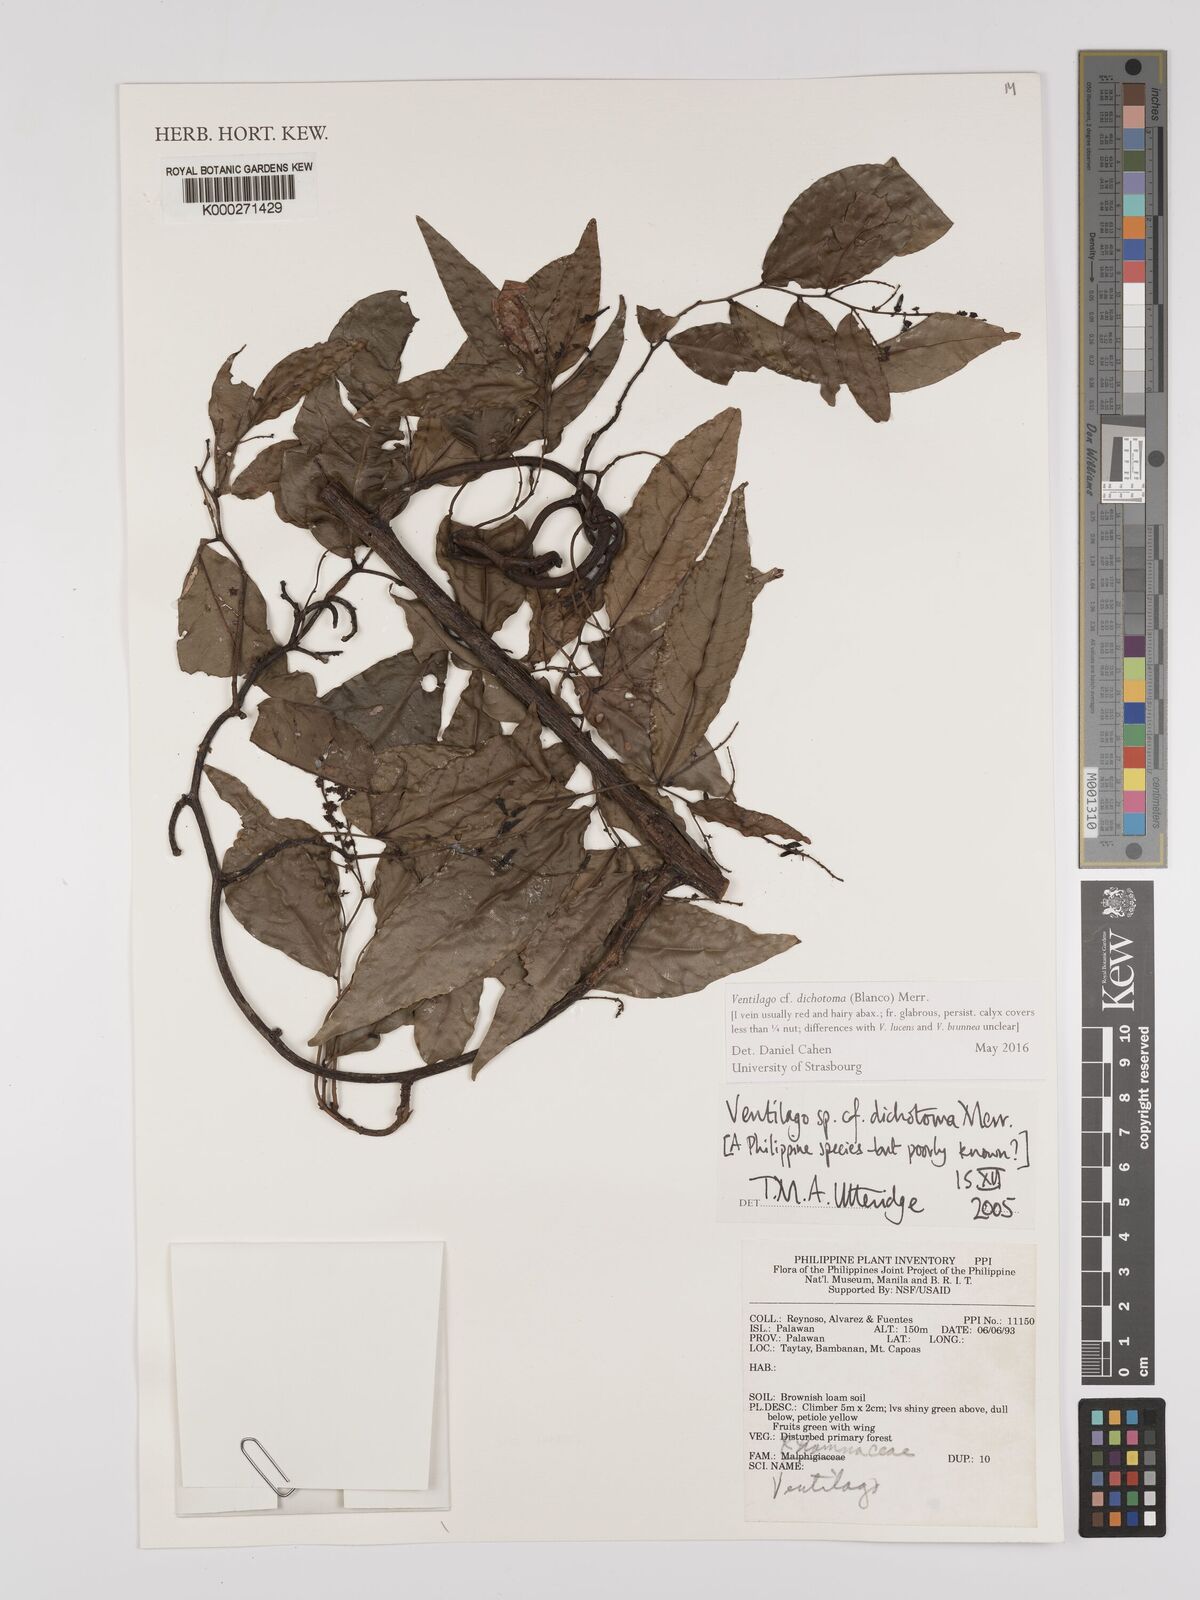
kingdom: Plantae
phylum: Tracheophyta
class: Magnoliopsida
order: Rosales
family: Rhamnaceae
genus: Ventilago
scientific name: Ventilago
